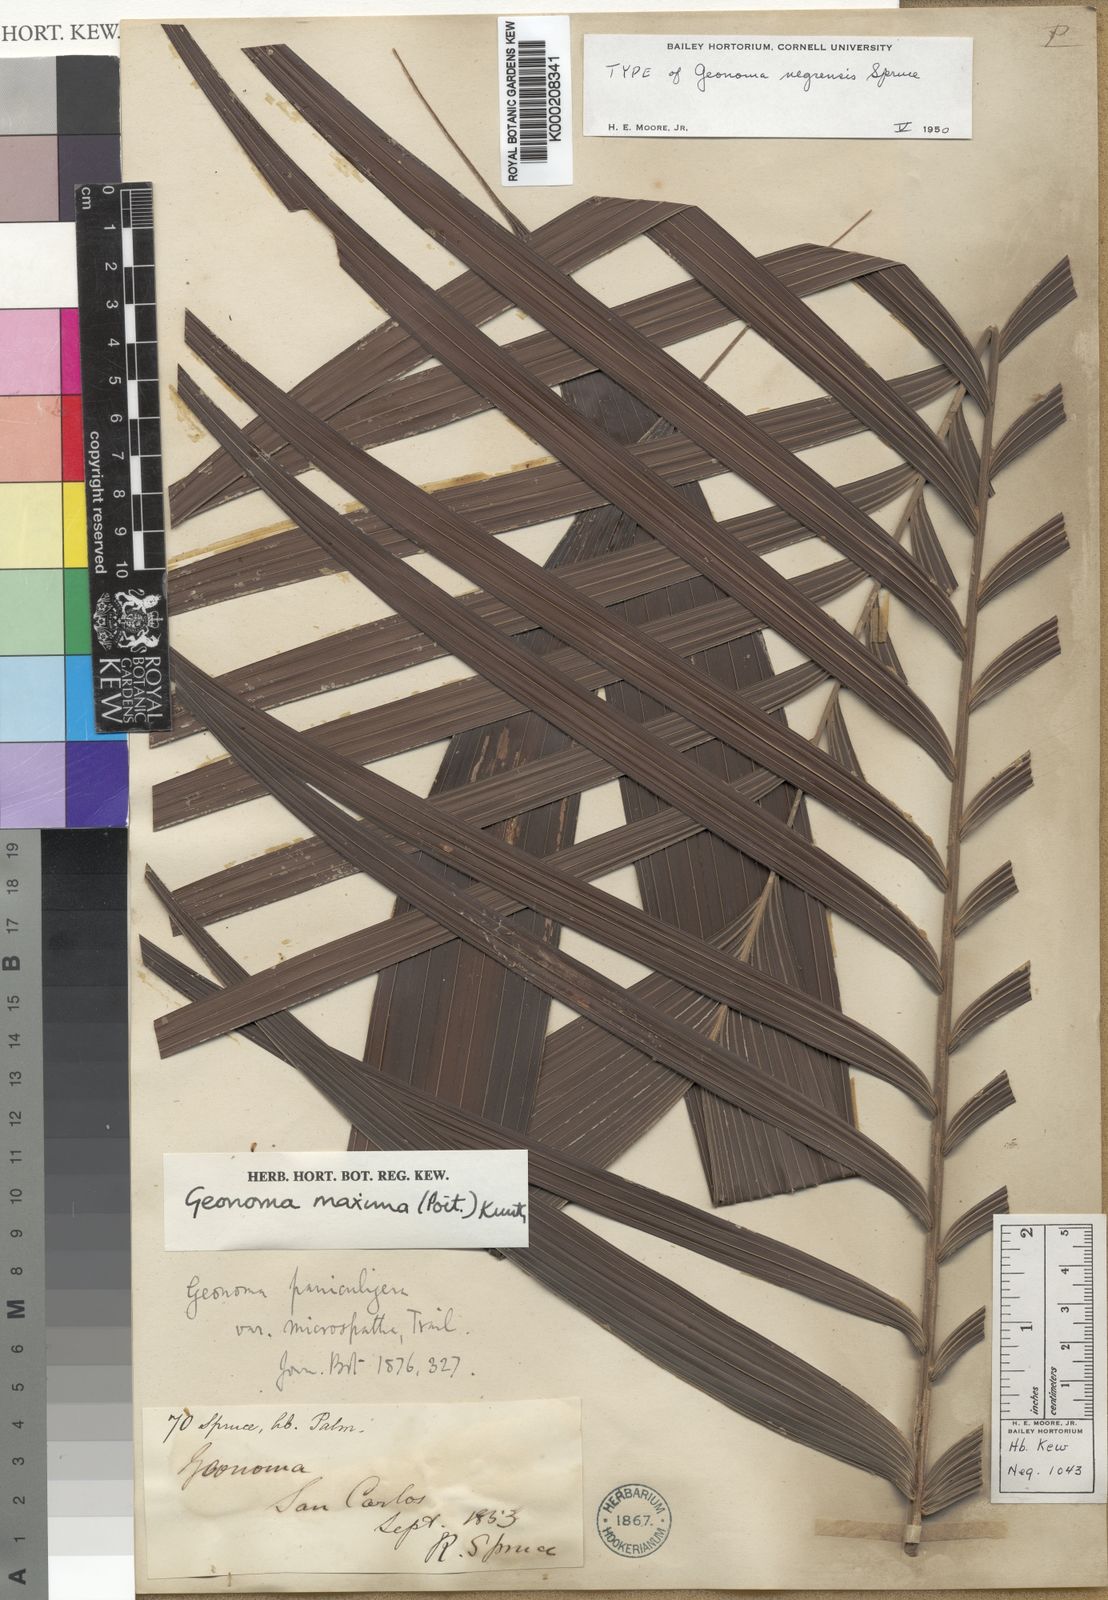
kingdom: Plantae
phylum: Tracheophyta
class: Liliopsida
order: Arecales
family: Arecaceae
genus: Geonoma
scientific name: Geonoma maxima
